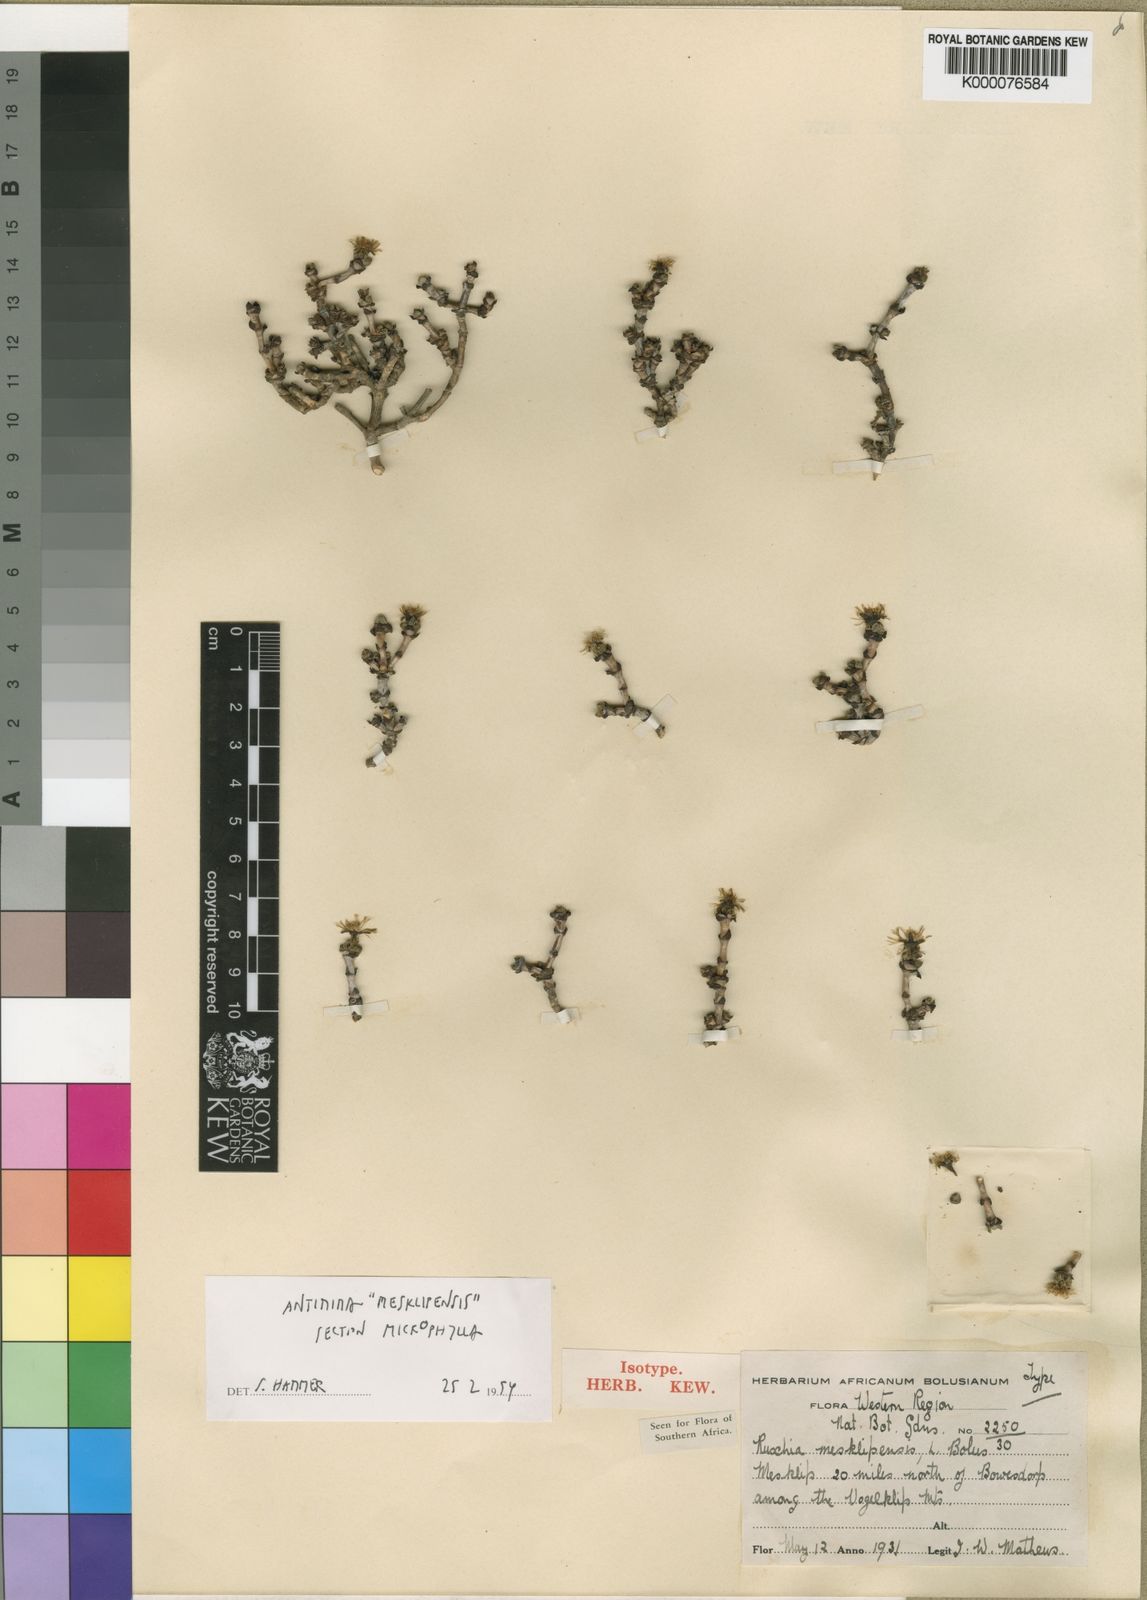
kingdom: Plantae
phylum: Tracheophyta
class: Magnoliopsida
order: Caryophyllales
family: Aizoaceae
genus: Antimima
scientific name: Antimima mesklipensis
